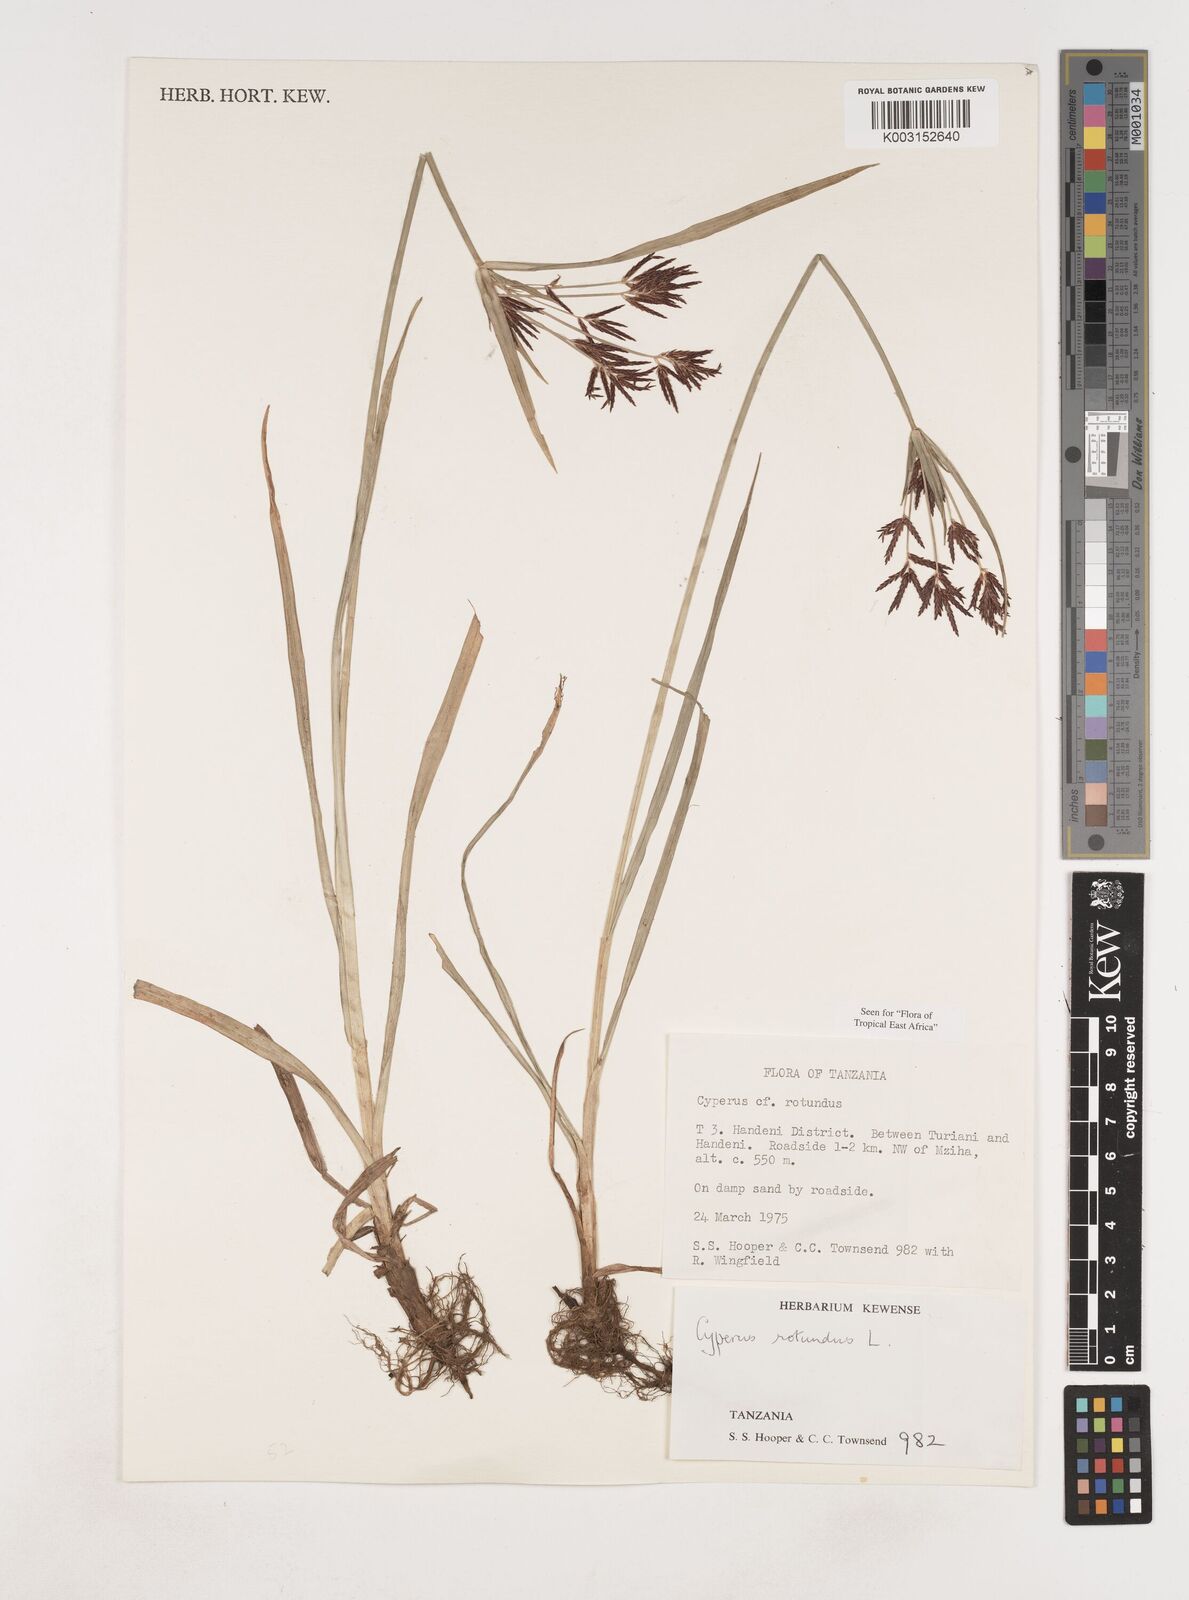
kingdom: Plantae
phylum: Tracheophyta
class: Liliopsida
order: Poales
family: Cyperaceae
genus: Cyperus
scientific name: Cyperus rotundus
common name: Nutgrass
